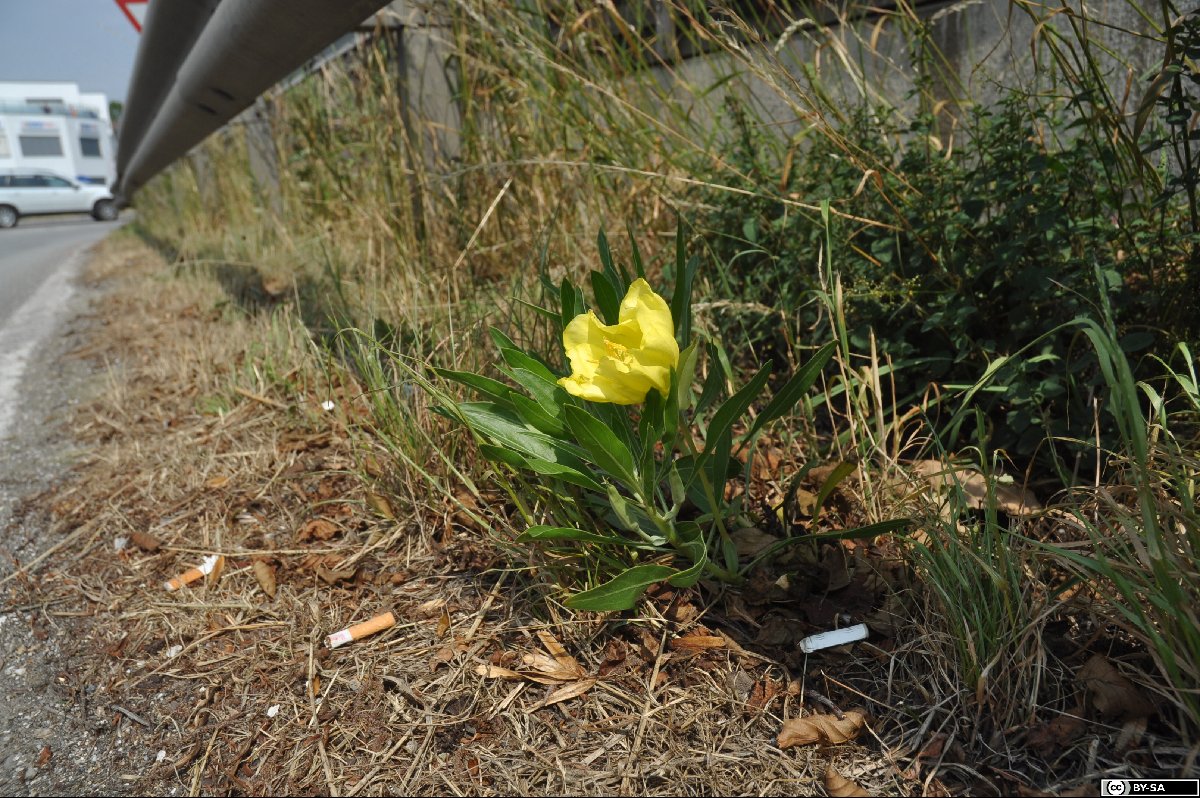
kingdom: Plantae
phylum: Tracheophyta
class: Magnoliopsida
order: Myrtales
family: Onagraceae
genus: Oenothera
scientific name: Oenothera macrocarpa
